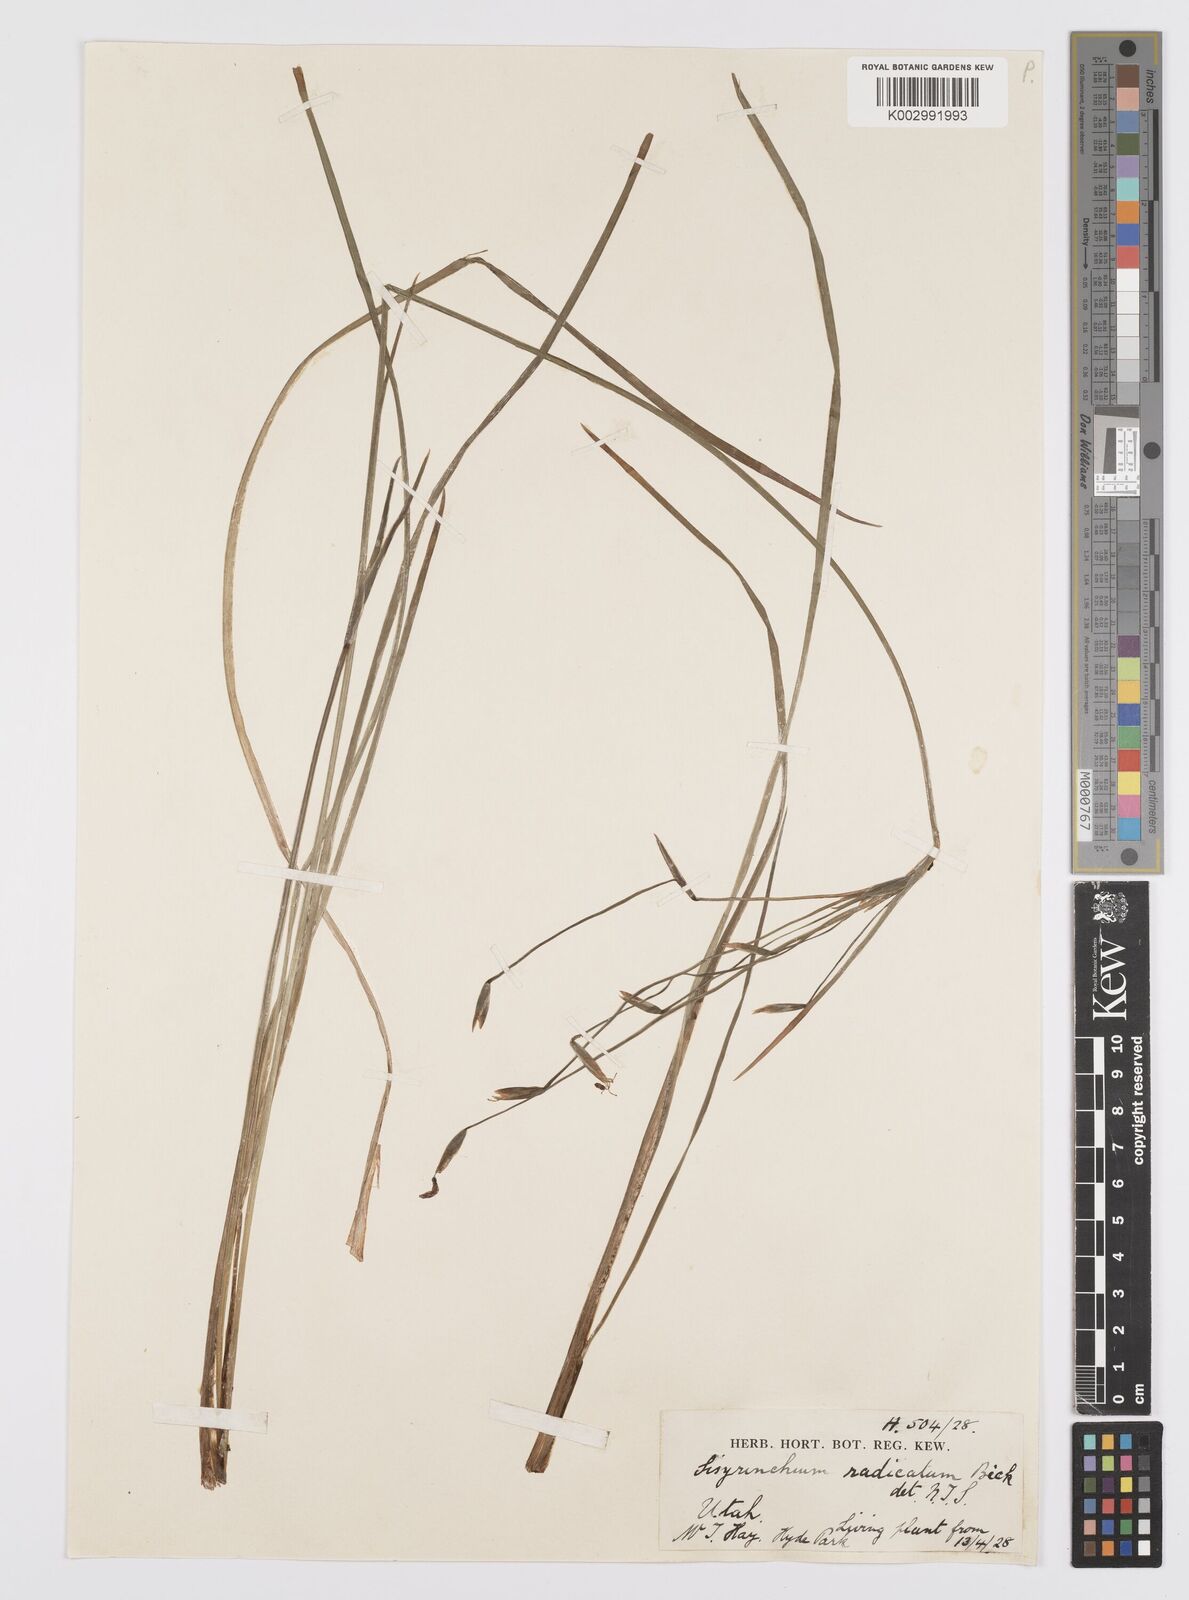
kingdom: Plantae
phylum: Tracheophyta
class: Liliopsida
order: Asparagales
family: Iridaceae
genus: Sisyrinchium
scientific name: Sisyrinchium radicatum
